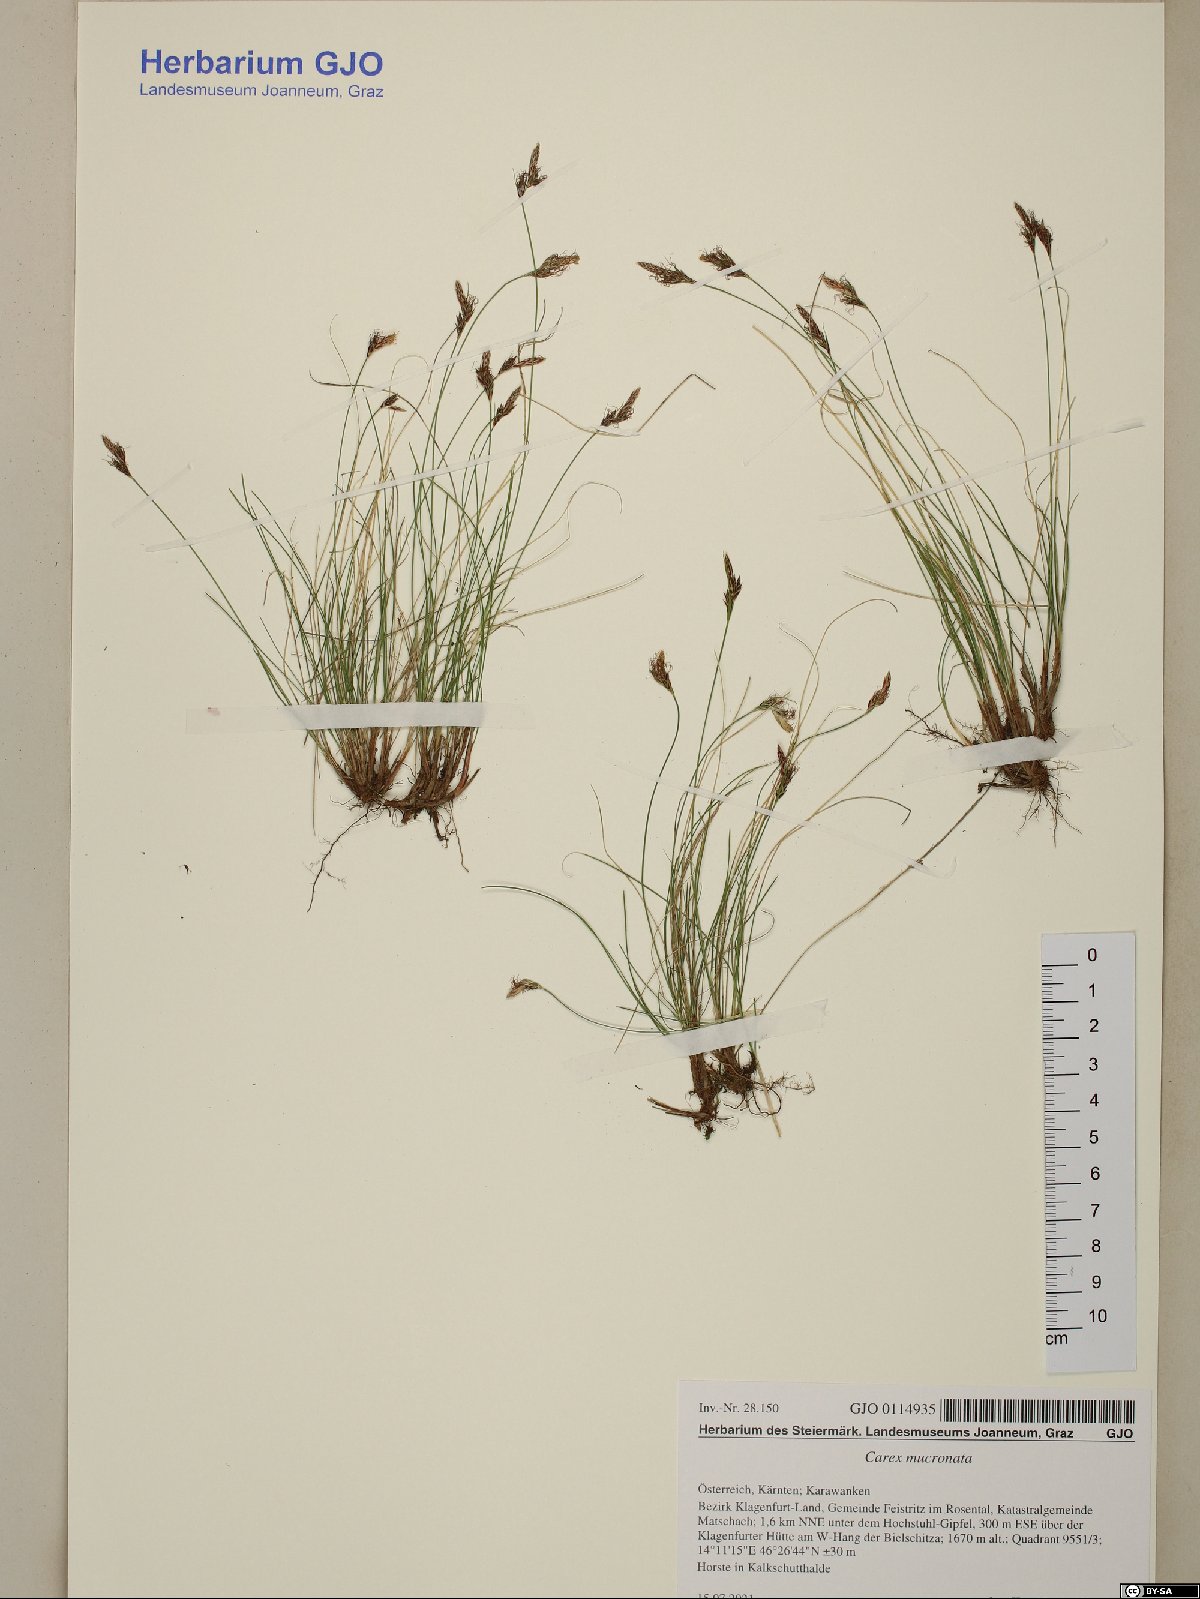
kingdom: Plantae
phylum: Tracheophyta
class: Liliopsida
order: Poales
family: Cyperaceae
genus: Carex
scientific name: Carex mucronata
